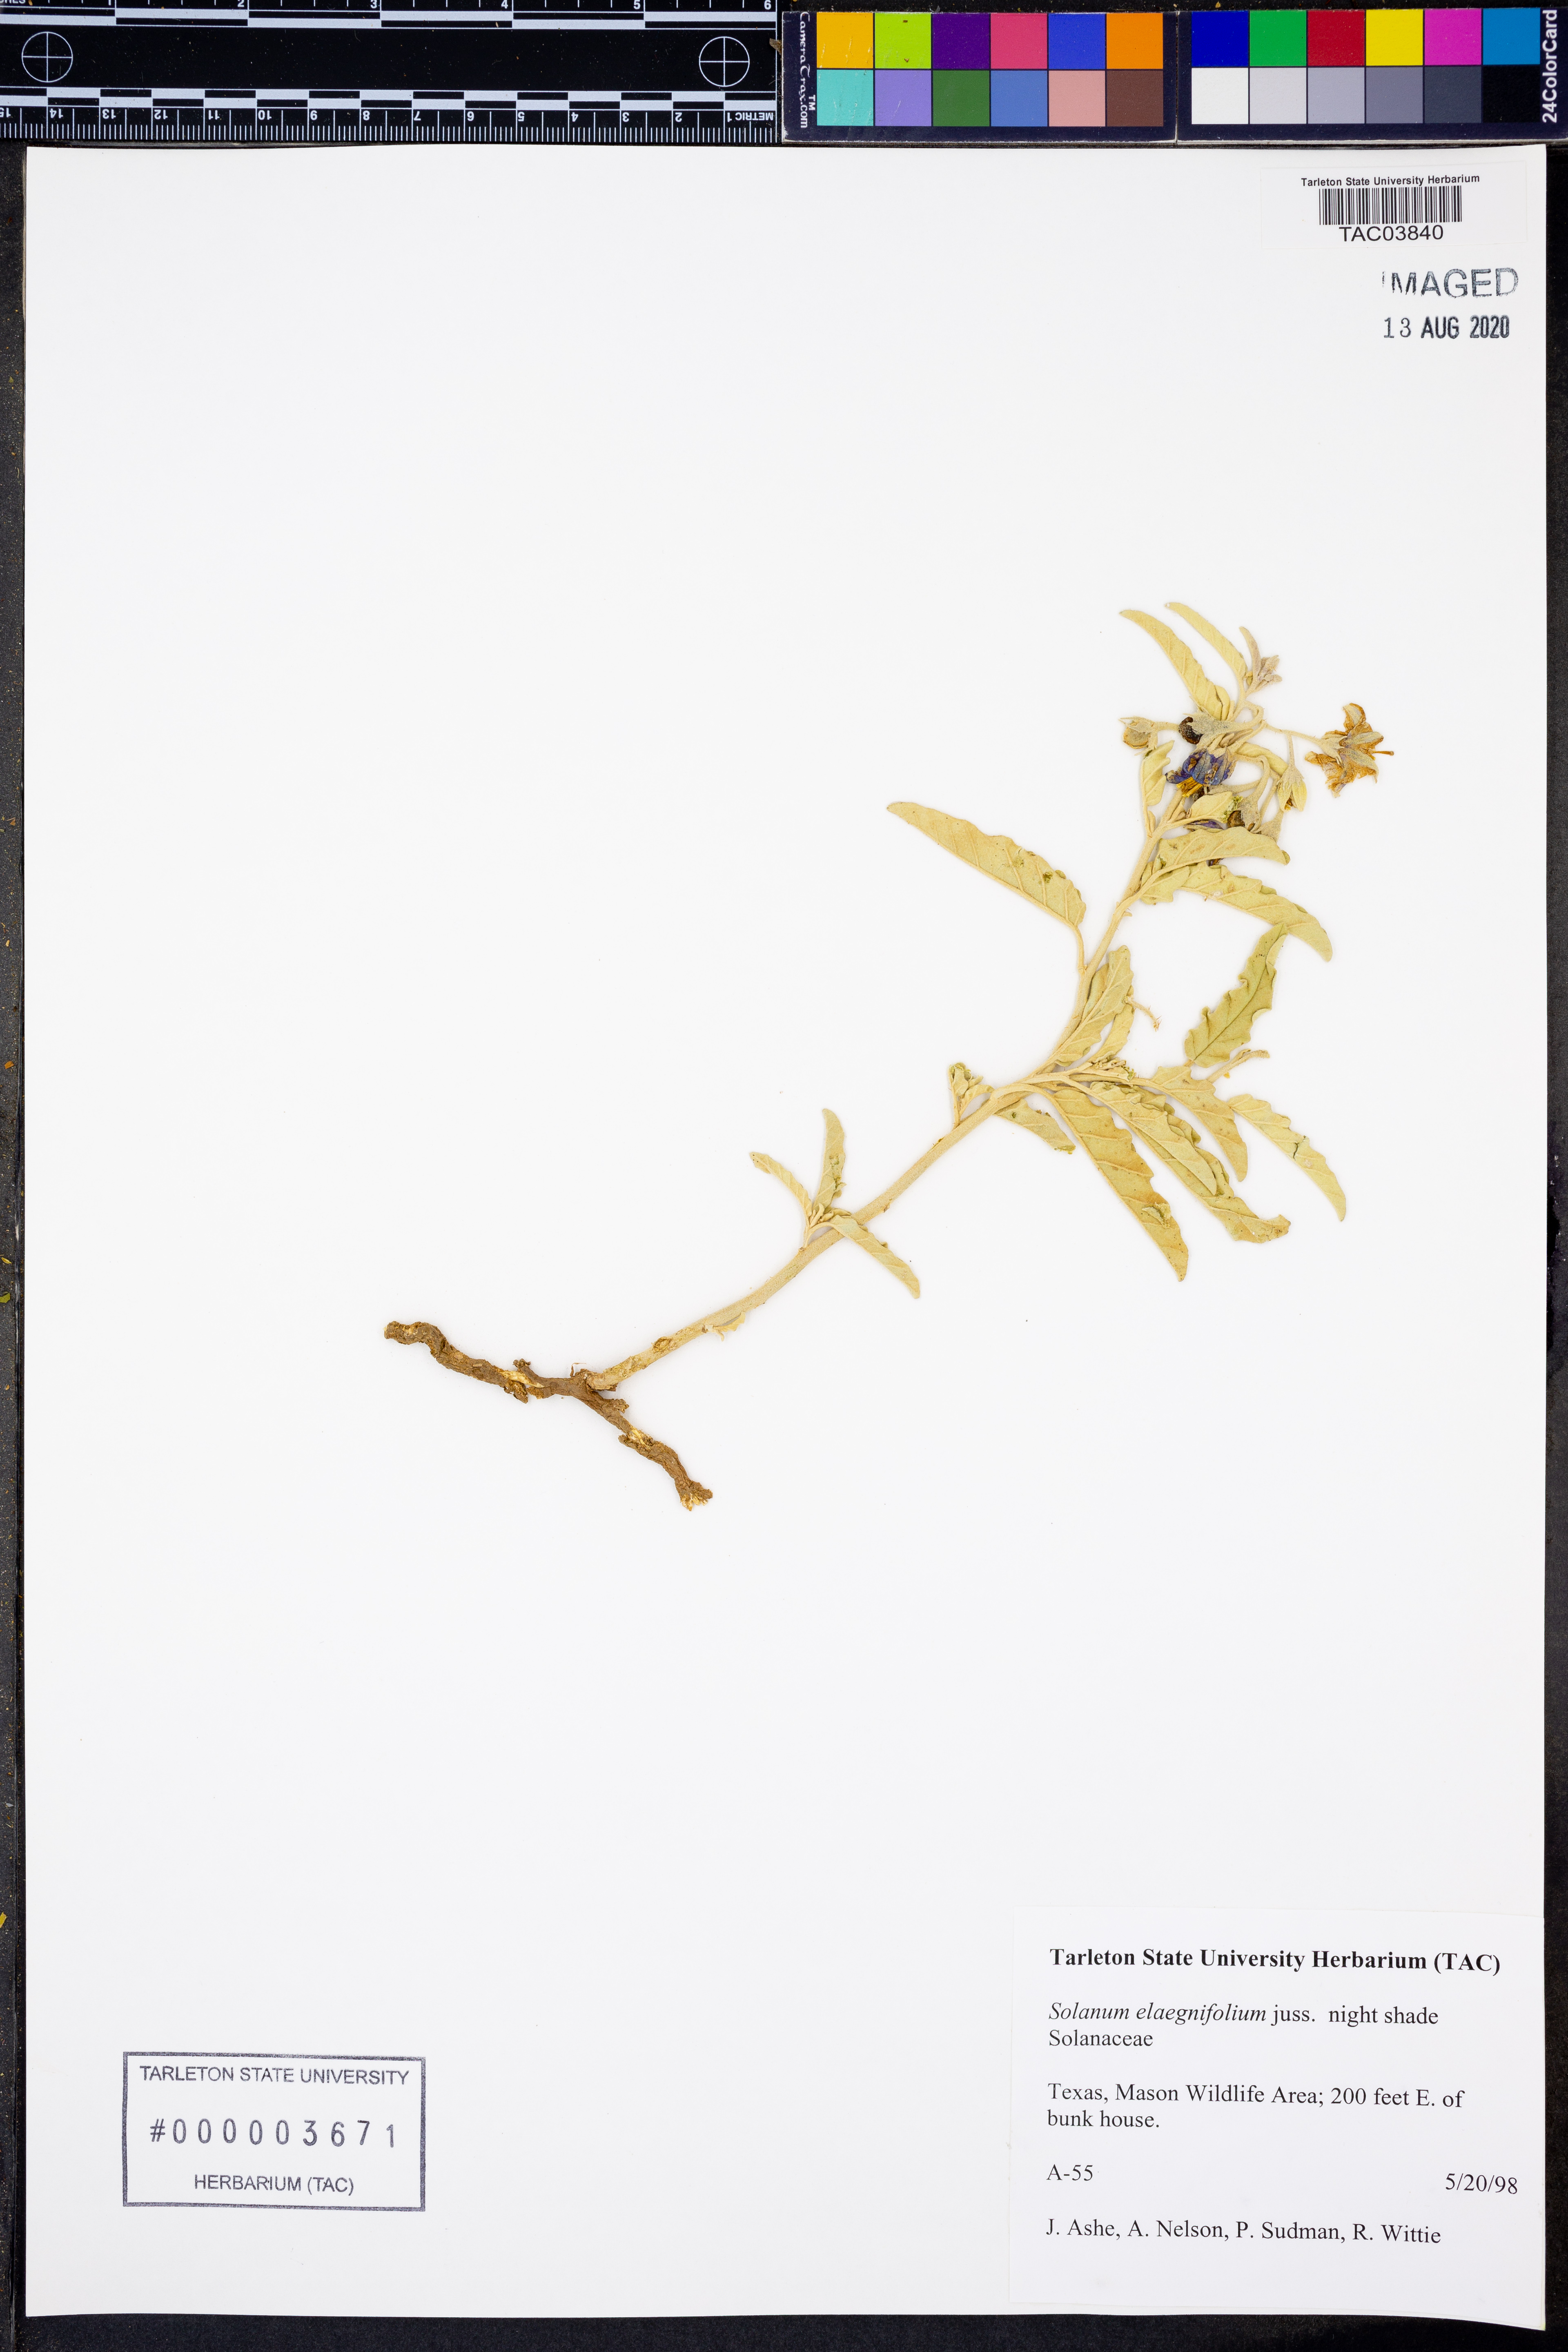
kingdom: Plantae
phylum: Tracheophyta
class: Magnoliopsida
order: Solanales
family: Solanaceae
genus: Solanum
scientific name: Solanum elaeagnifolium
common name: Silverleaf nightshade
